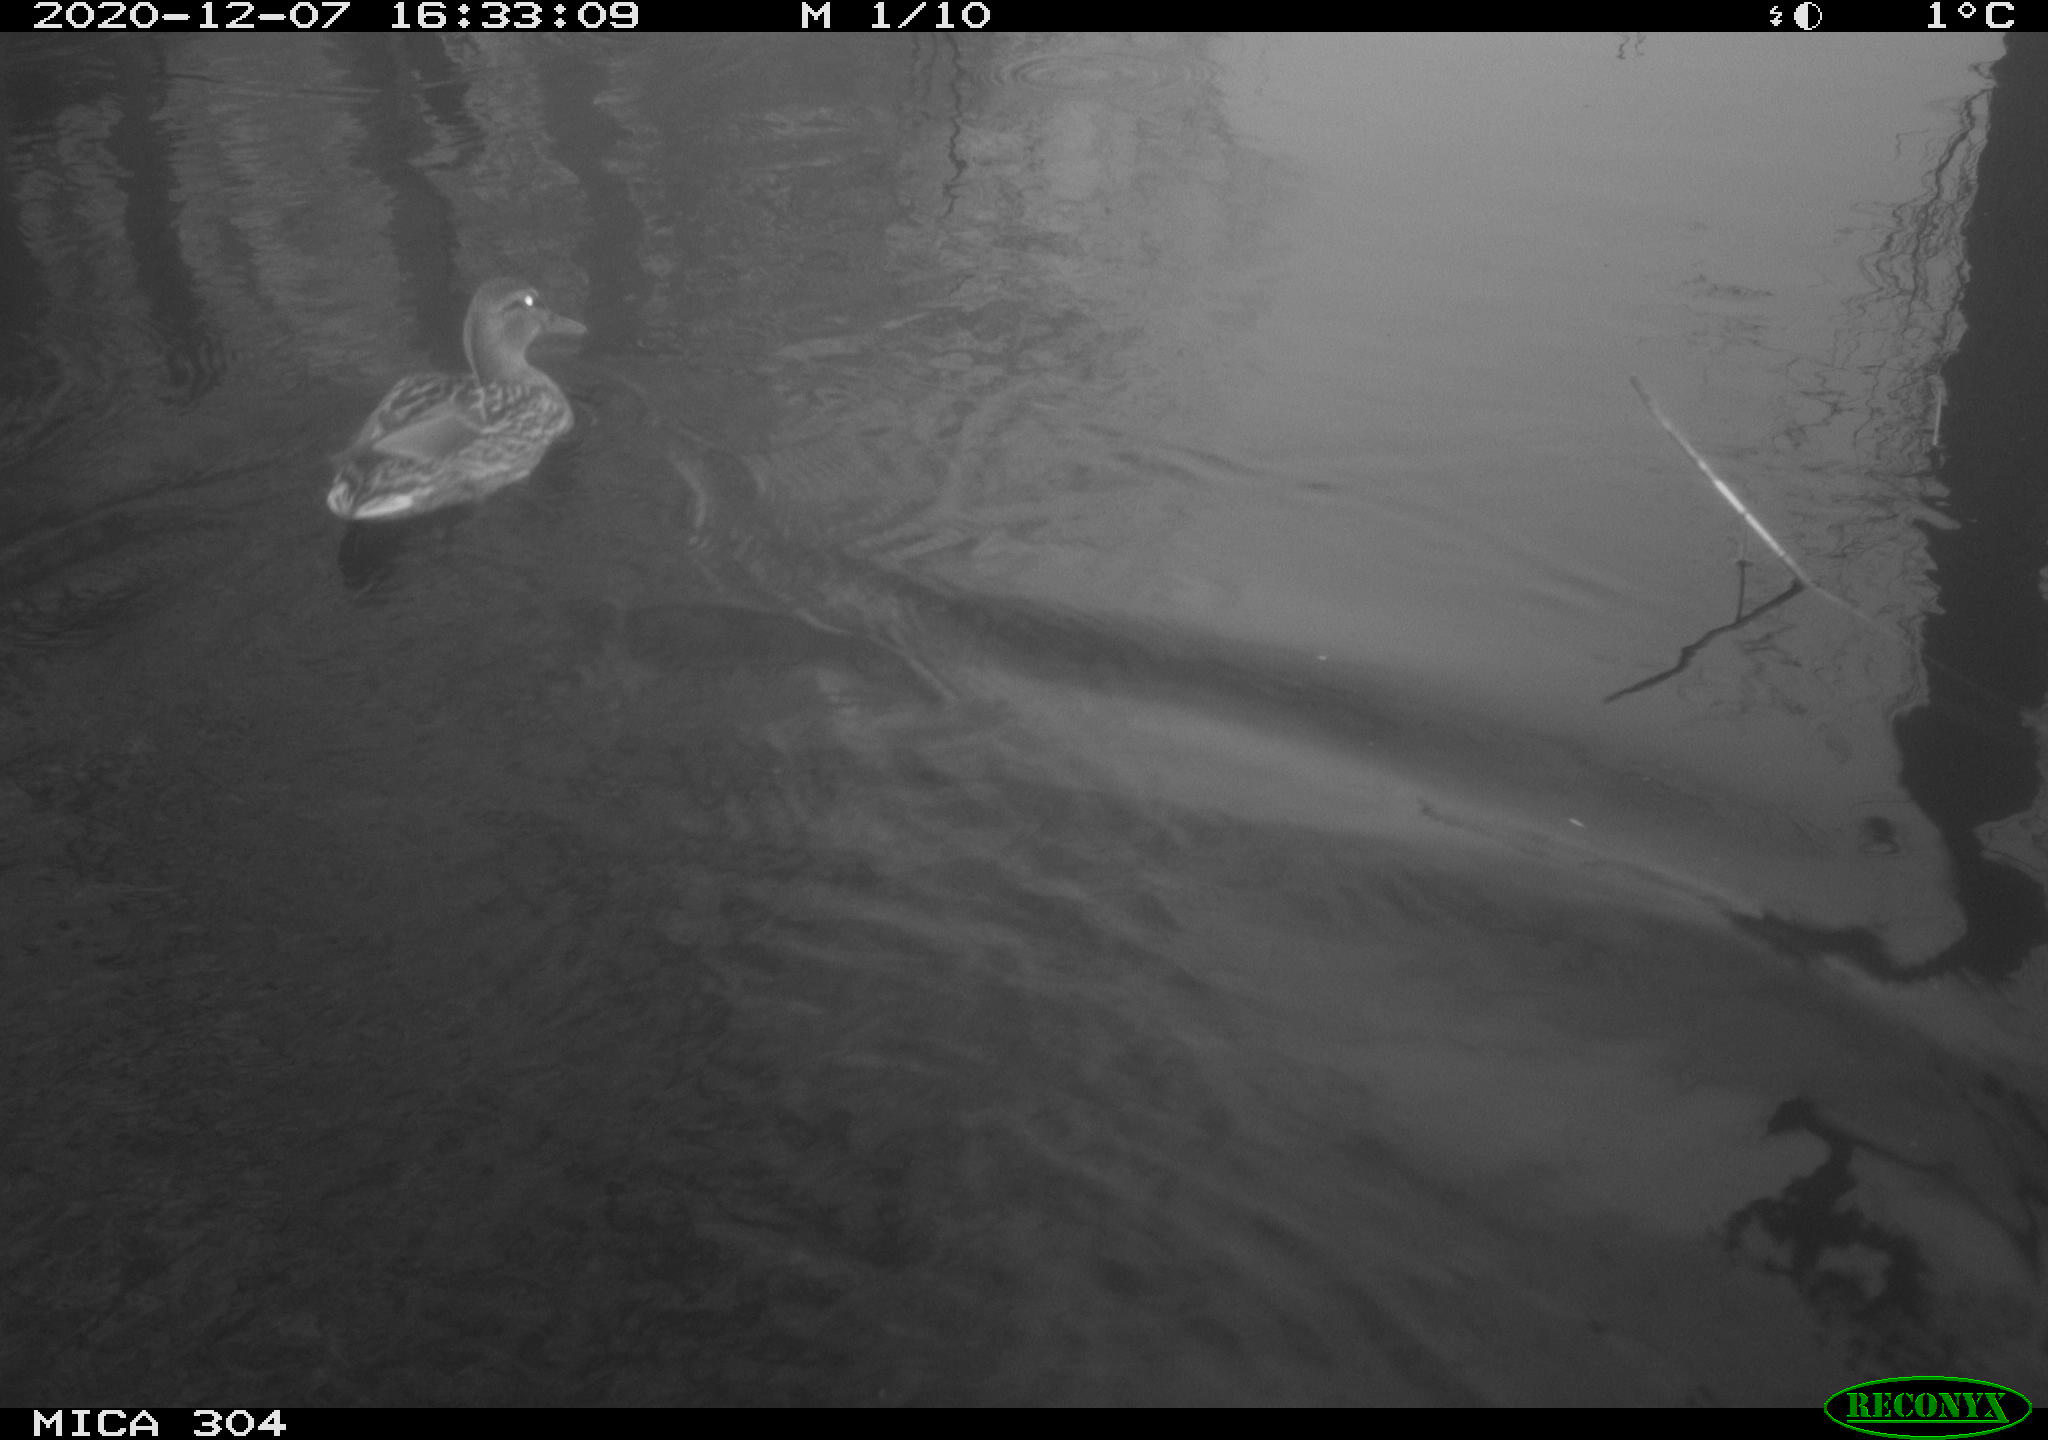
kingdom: Animalia
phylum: Chordata
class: Aves
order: Gruiformes
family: Rallidae
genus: Fulica
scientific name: Fulica atra
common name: Eurasian coot
